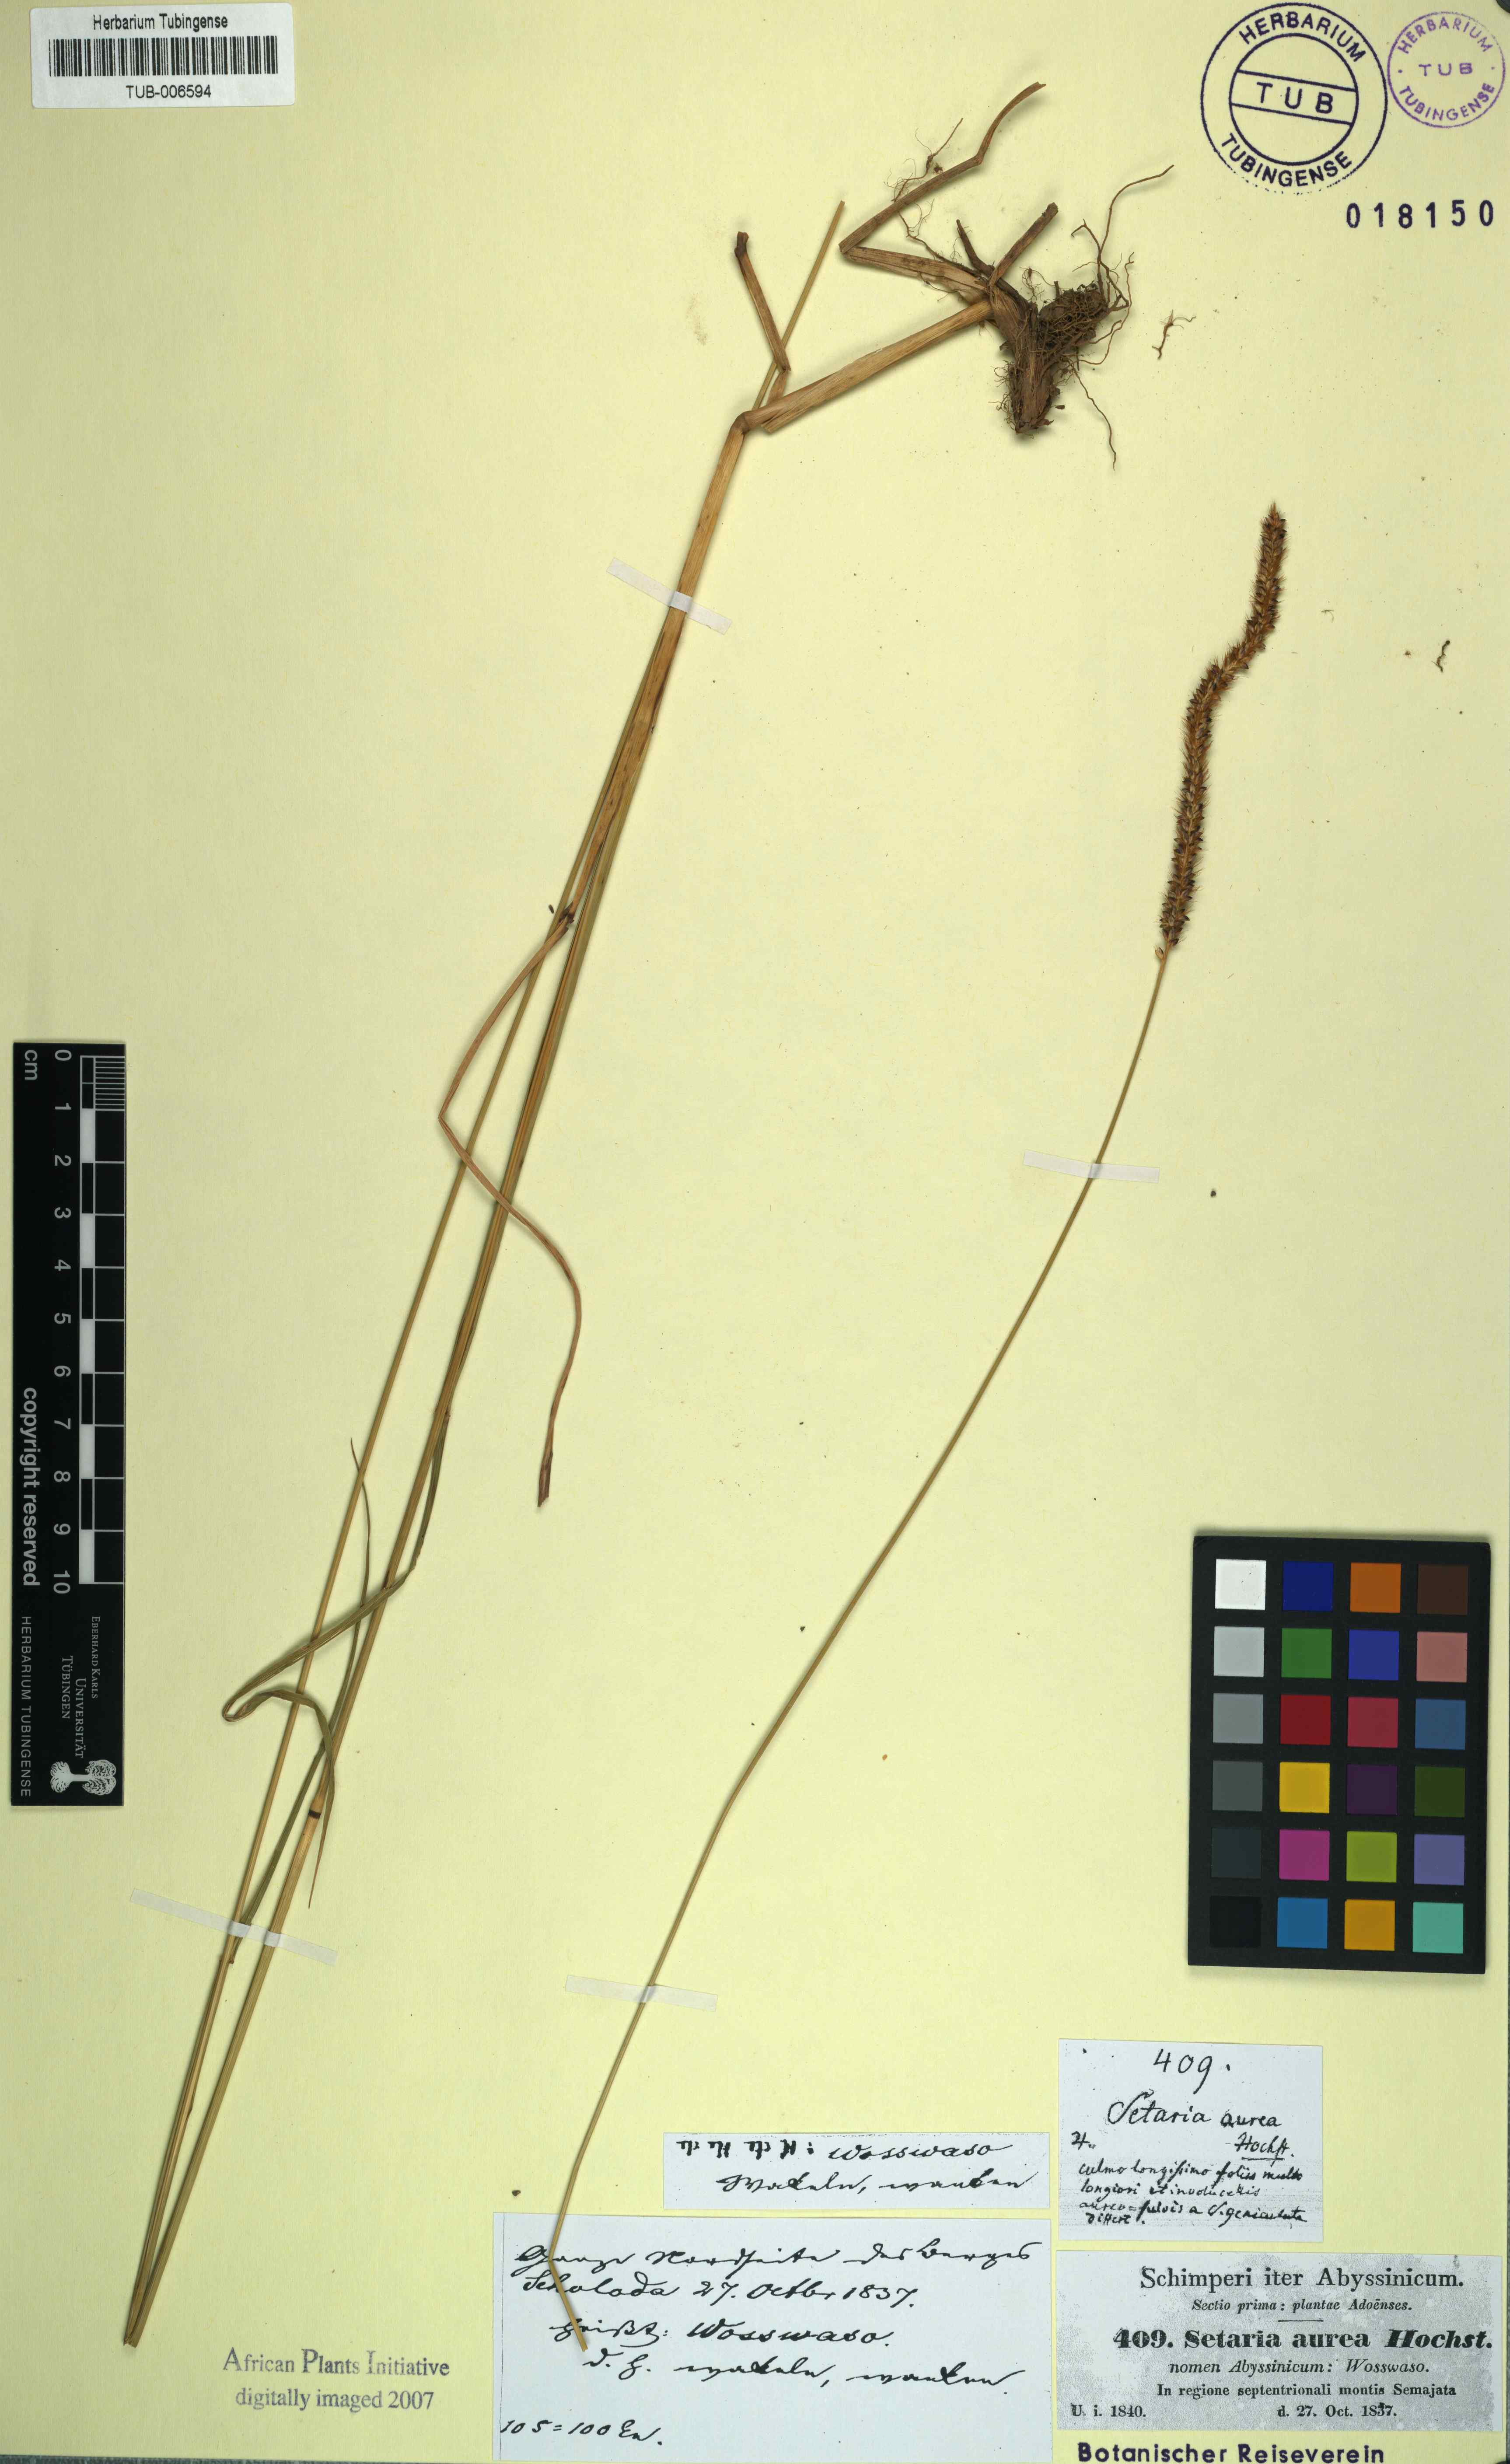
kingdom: Plantae
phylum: Tracheophyta
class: Liliopsida
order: Poales
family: Poaceae
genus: Setaria
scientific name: Setaria pumila
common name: Yellow bristle-grass
